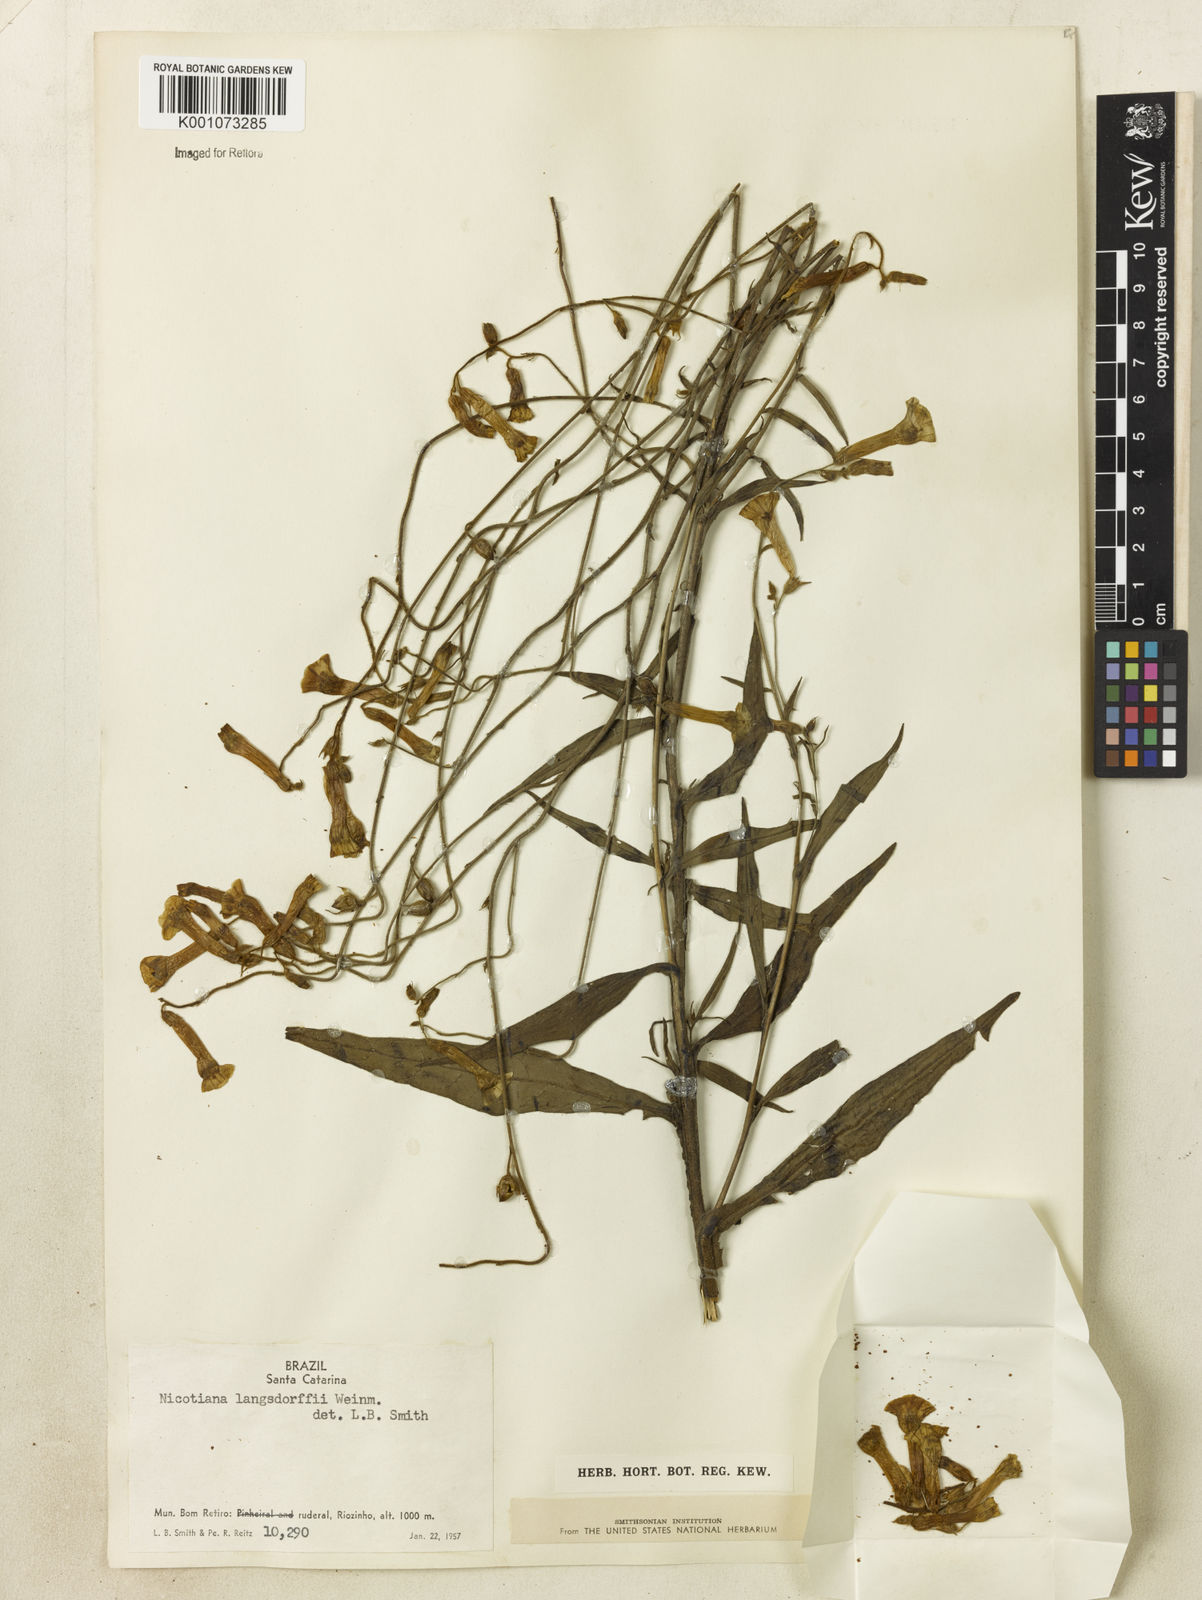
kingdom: Plantae
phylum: Tracheophyta
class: Magnoliopsida
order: Solanales
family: Solanaceae
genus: Nicotiana
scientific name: Nicotiana
